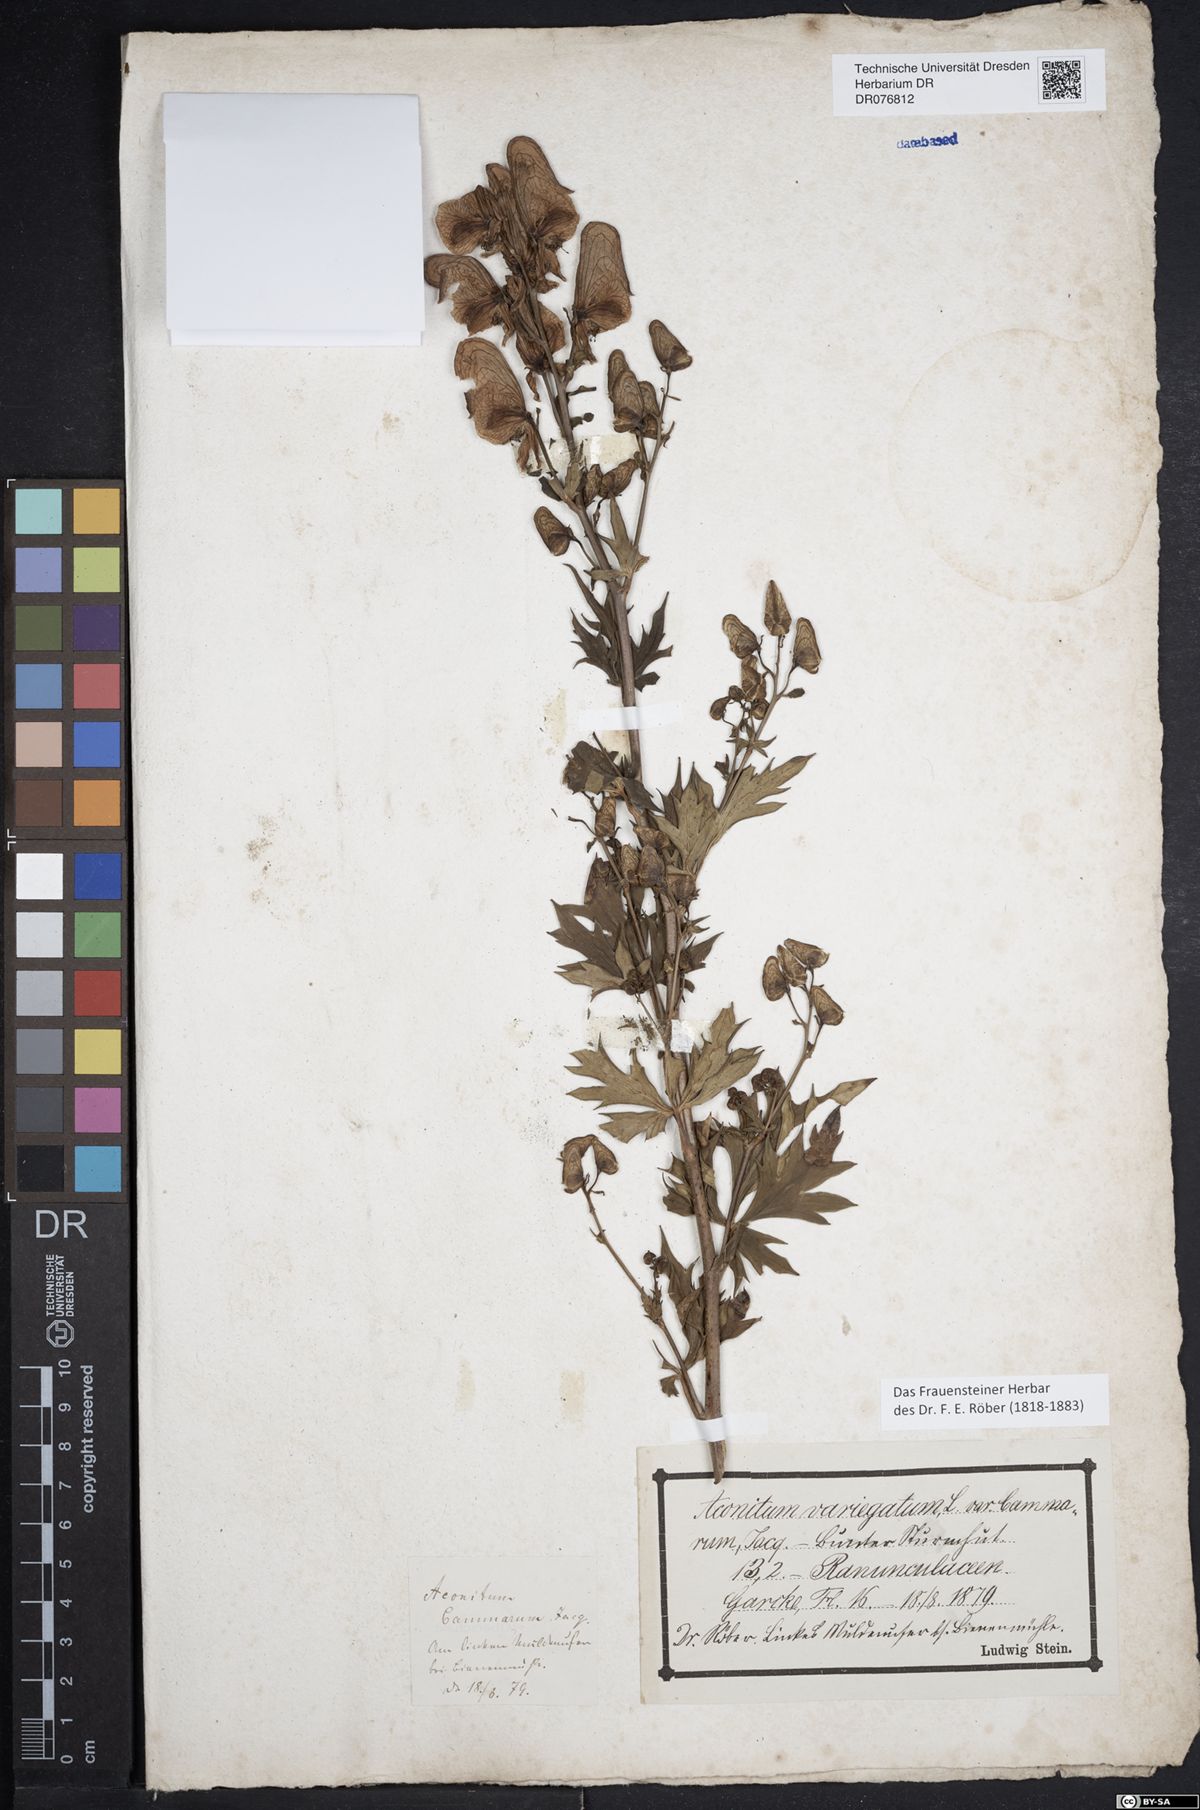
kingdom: Plantae
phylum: Tracheophyta
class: Magnoliopsida
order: Ranunculales
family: Ranunculaceae
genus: Aconitum
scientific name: Aconitum variegatum
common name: Manchurian monkshood
